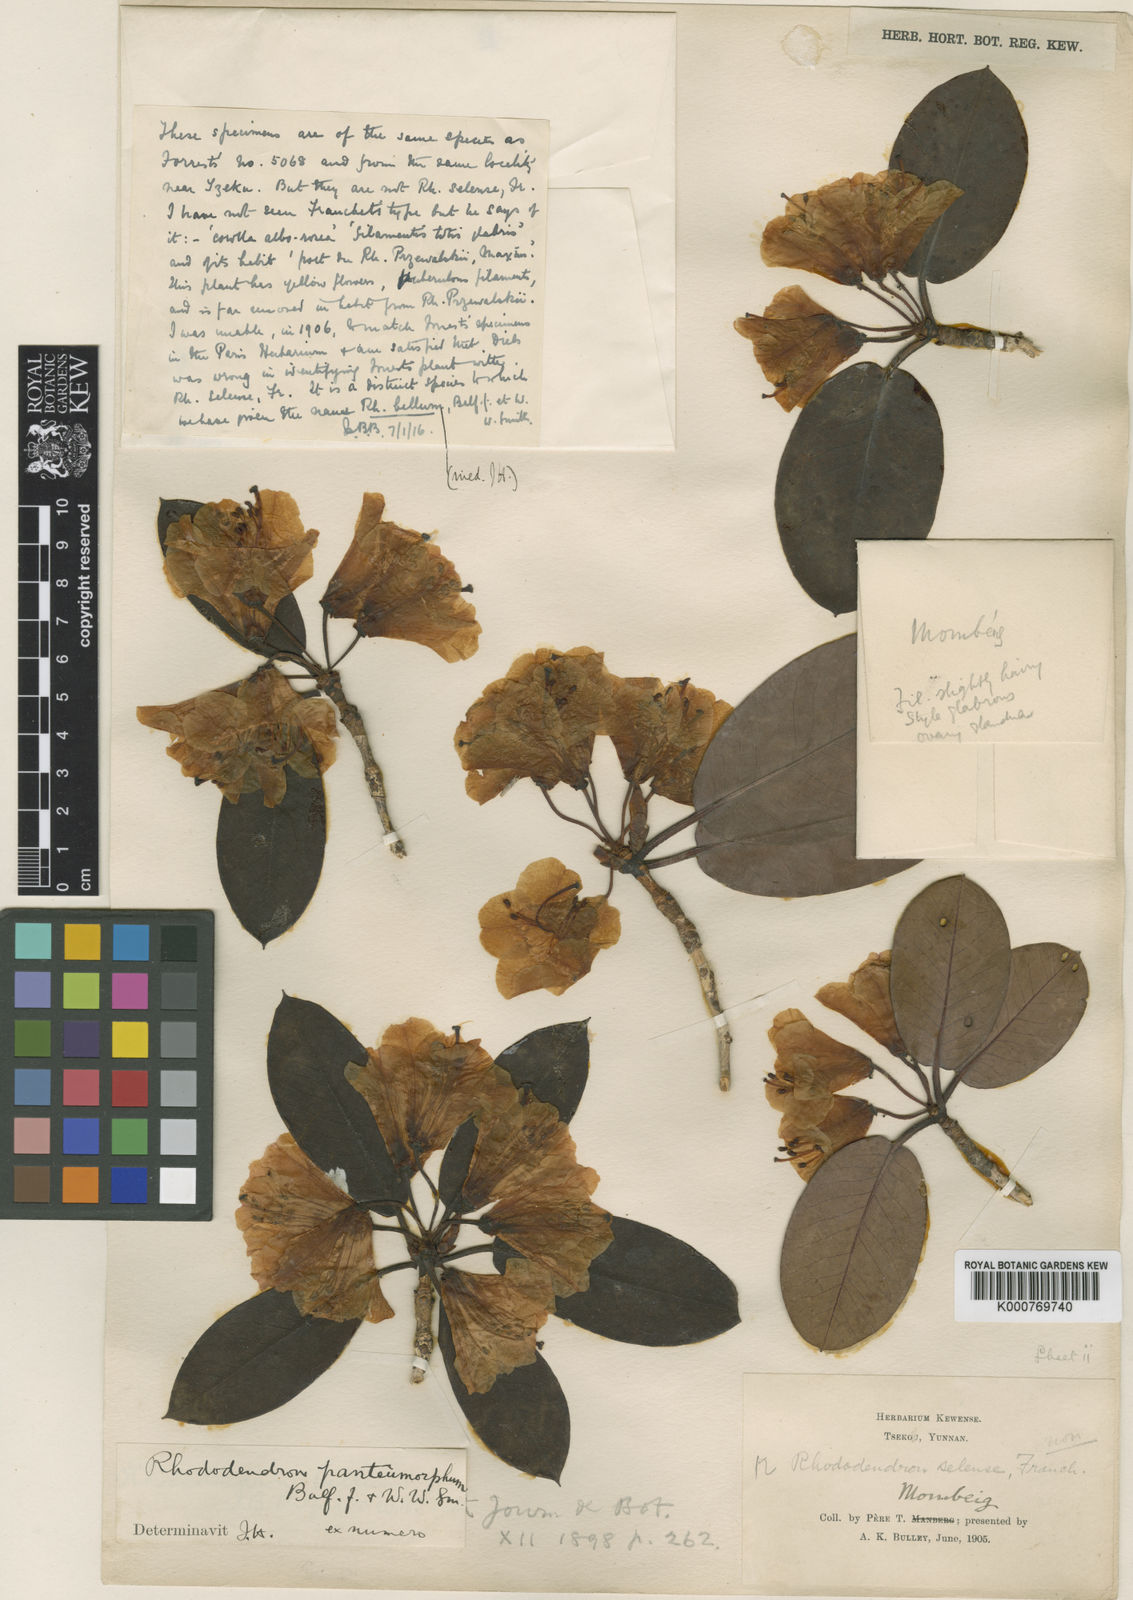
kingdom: Plantae
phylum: Tracheophyta
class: Magnoliopsida
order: Ericales
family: Ericaceae
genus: Rhododendron
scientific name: Rhododendron erythrocalyx
